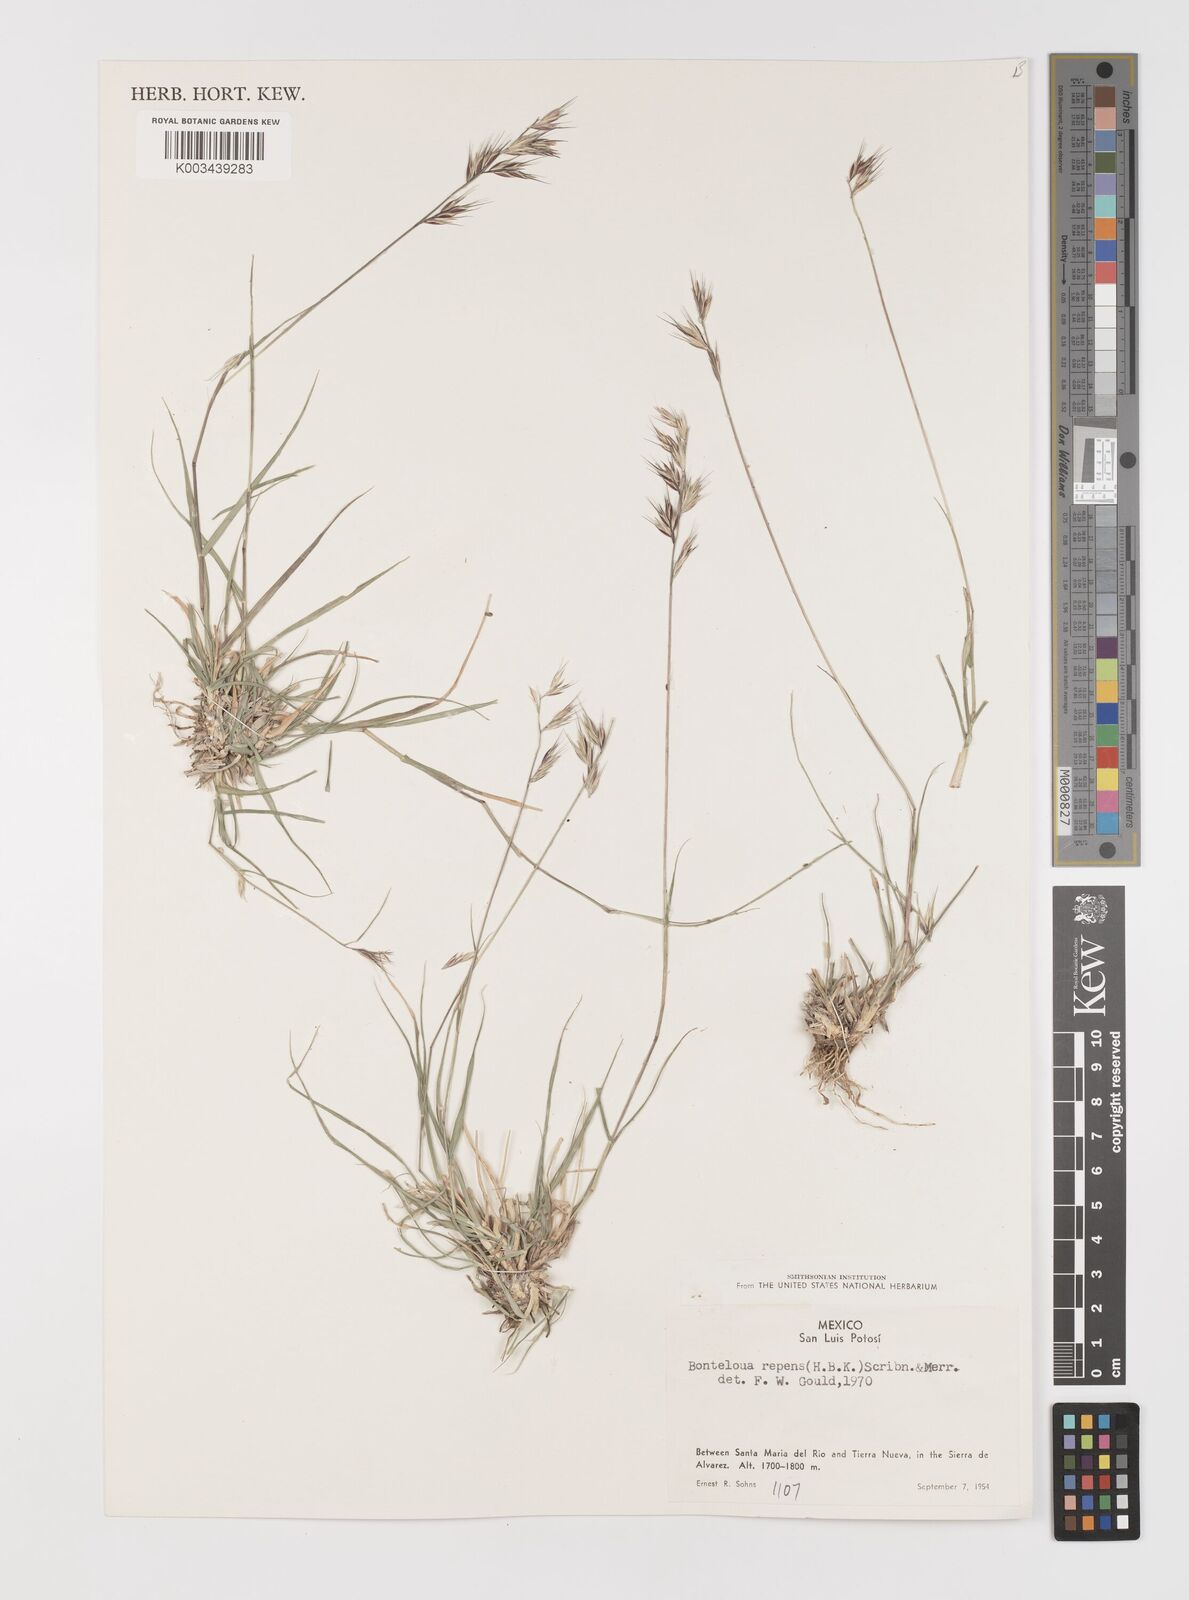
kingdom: Plantae
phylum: Tracheophyta
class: Liliopsida
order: Poales
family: Poaceae
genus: Bouteloua
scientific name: Bouteloua repens
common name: Slender grama
